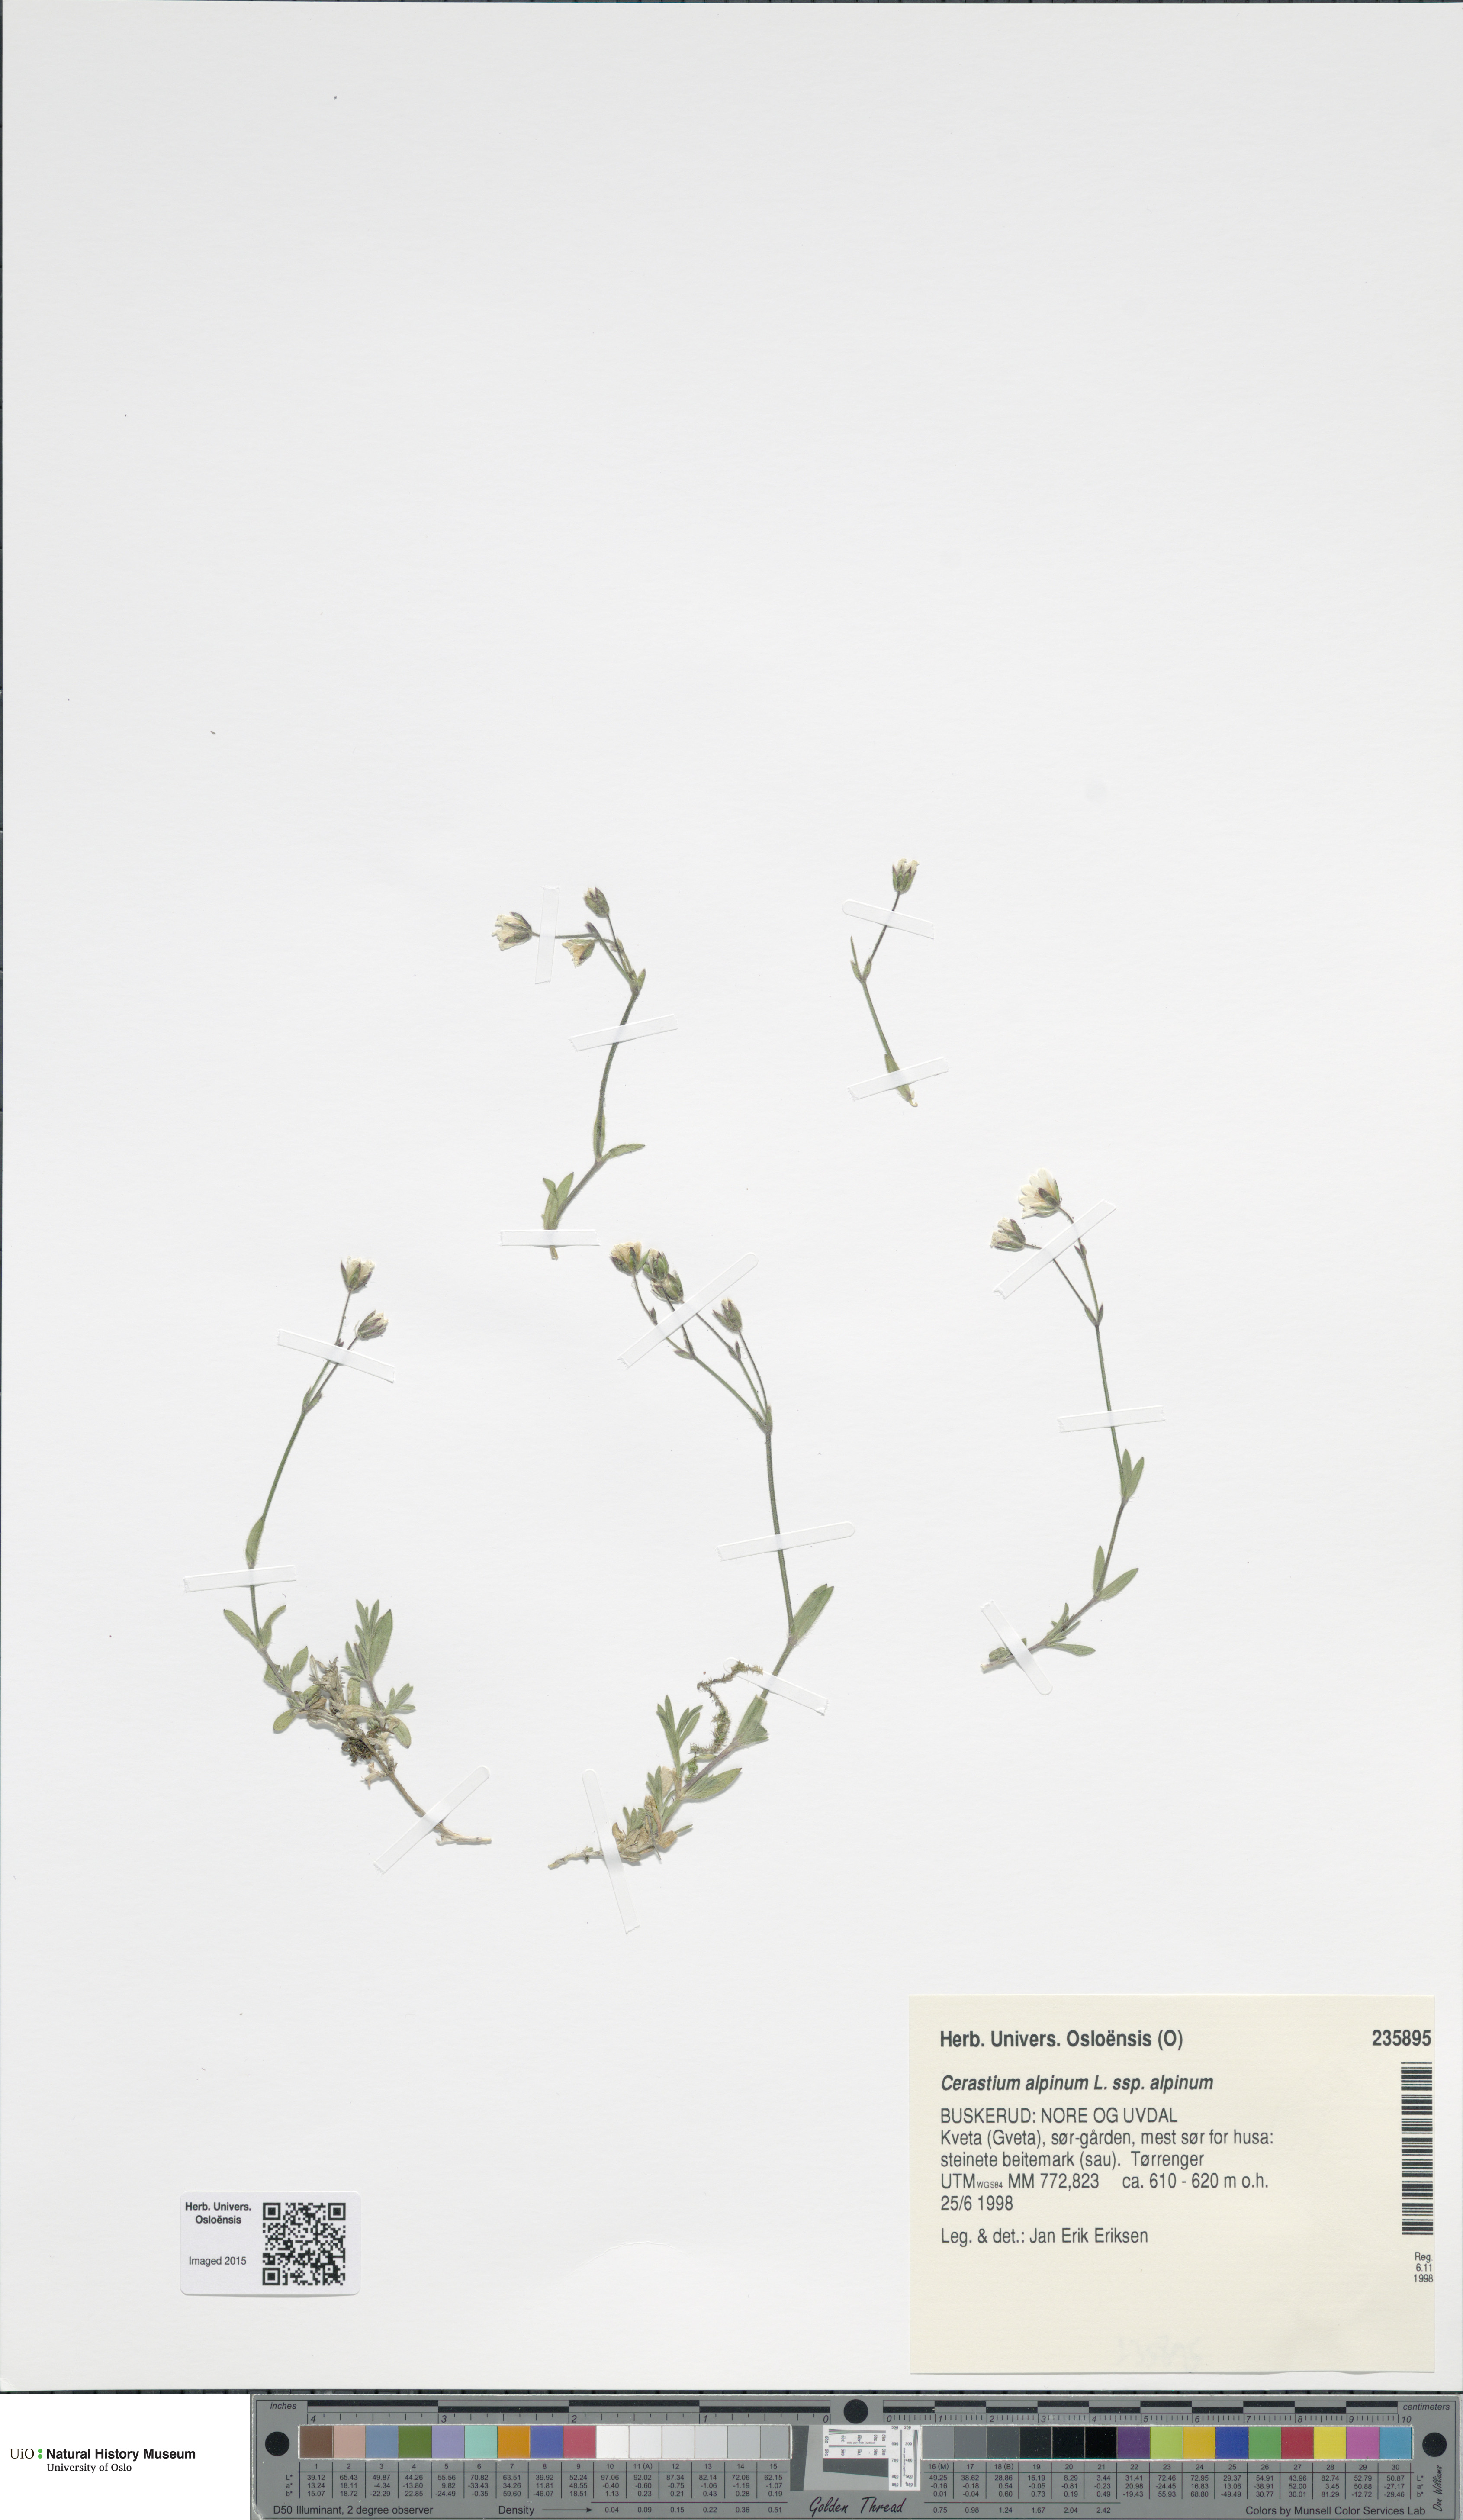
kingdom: Plantae
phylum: Tracheophyta
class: Magnoliopsida
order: Caryophyllales
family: Caryophyllaceae
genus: Cerastium
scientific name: Cerastium alpinum
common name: Alpine mouse-ear
